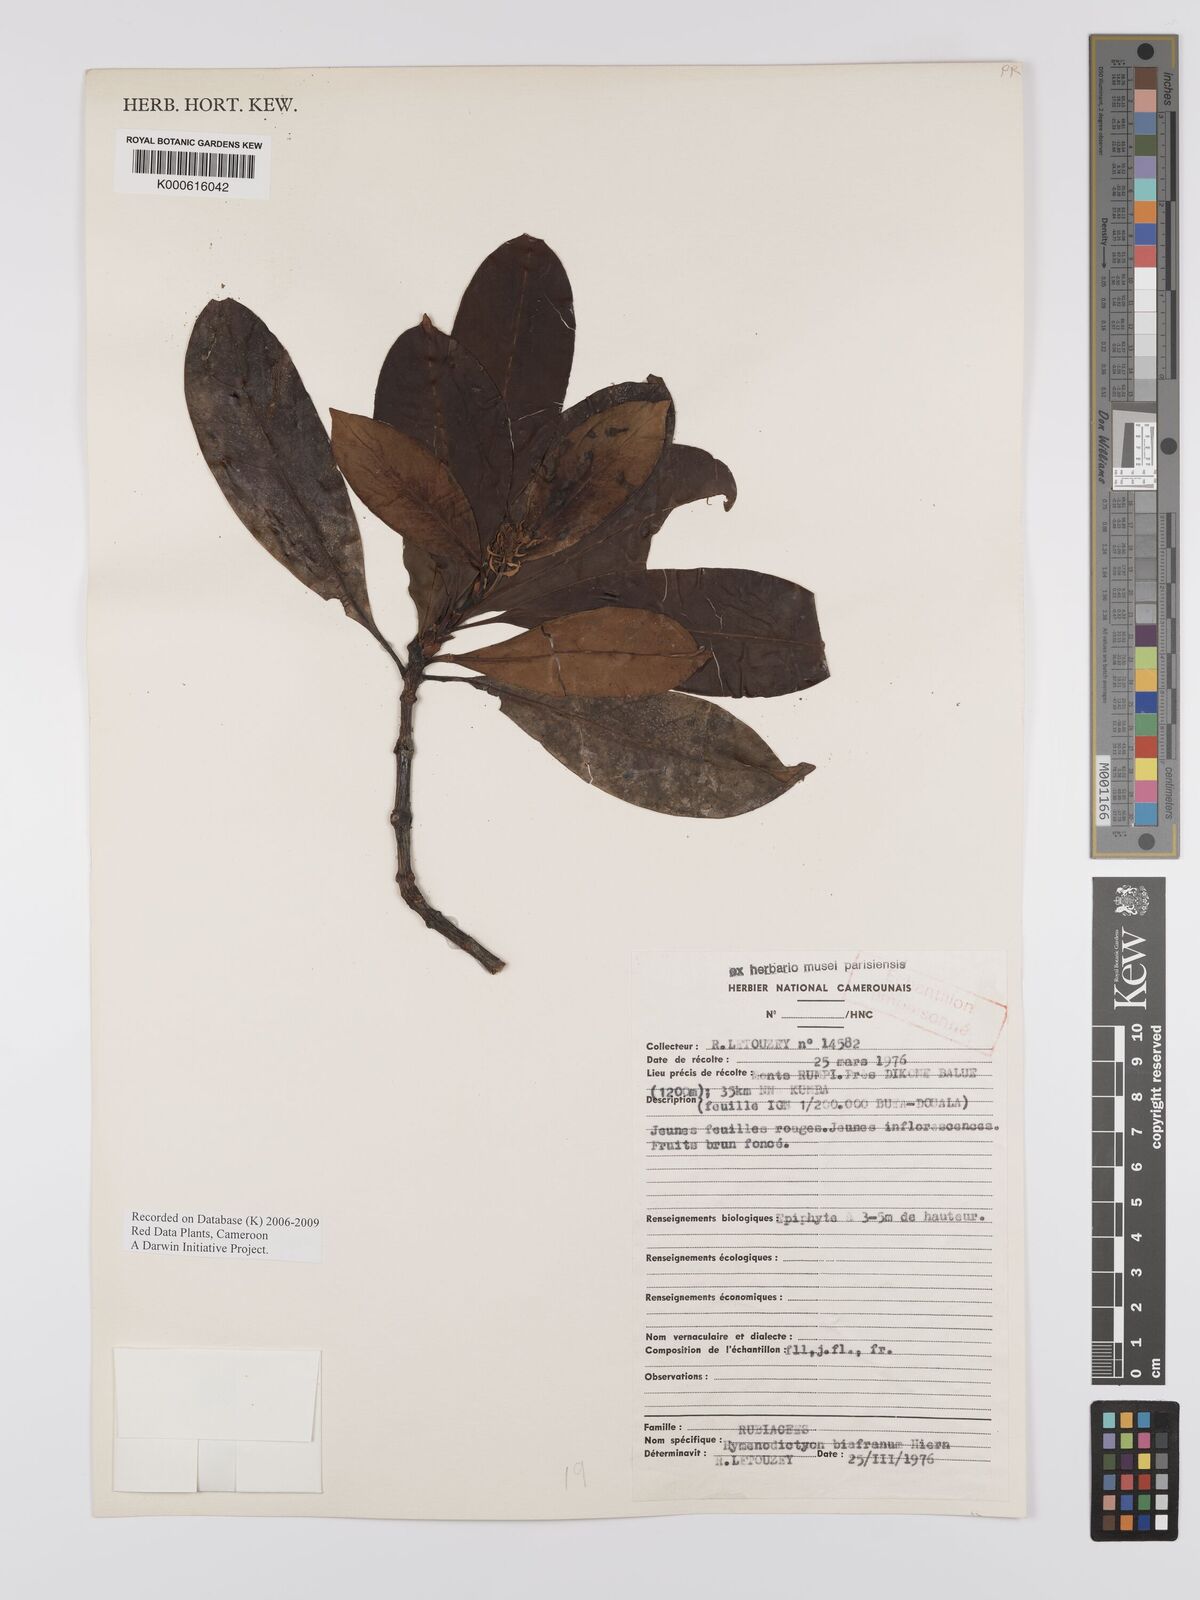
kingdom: Plantae
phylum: Tracheophyta
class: Magnoliopsida
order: Gentianales
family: Rubiaceae
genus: Hymenodictyon
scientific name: Hymenodictyon biafranum
